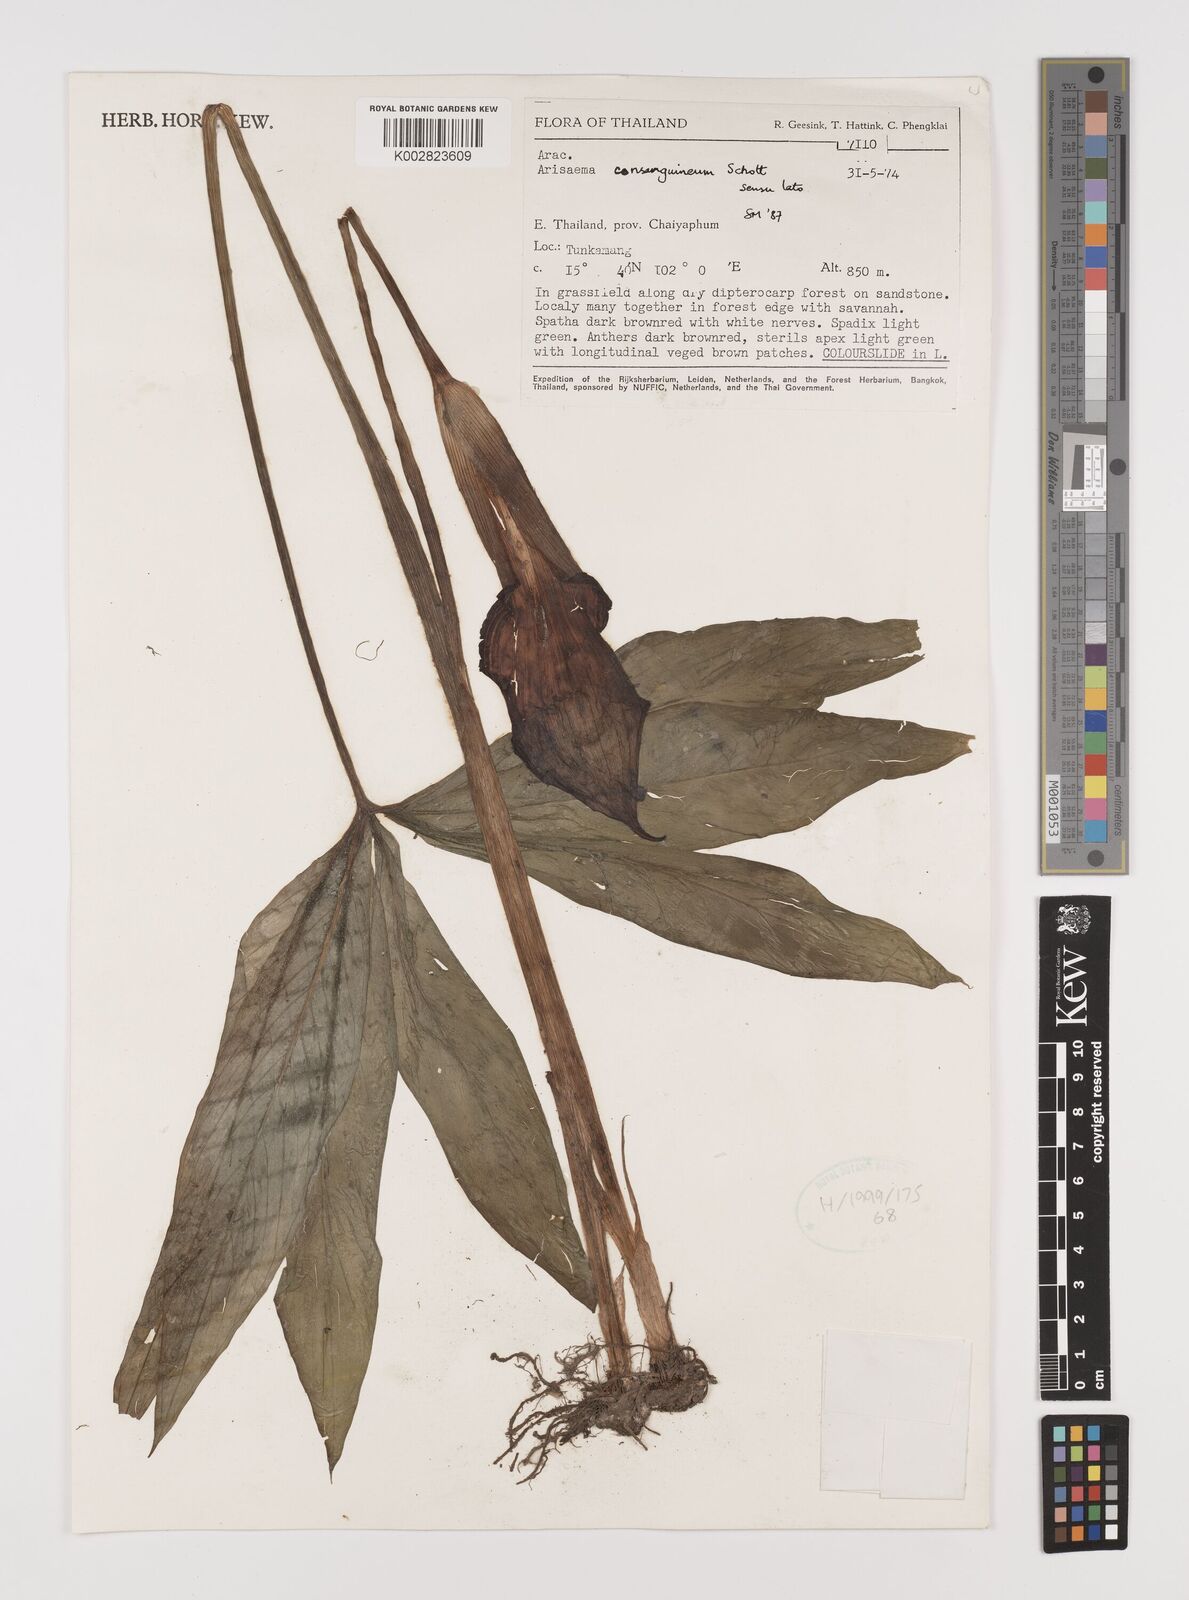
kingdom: Plantae
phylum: Tracheophyta
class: Liliopsida
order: Alismatales
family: Araceae
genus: Arisaema
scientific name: Arisaema consanguineum
